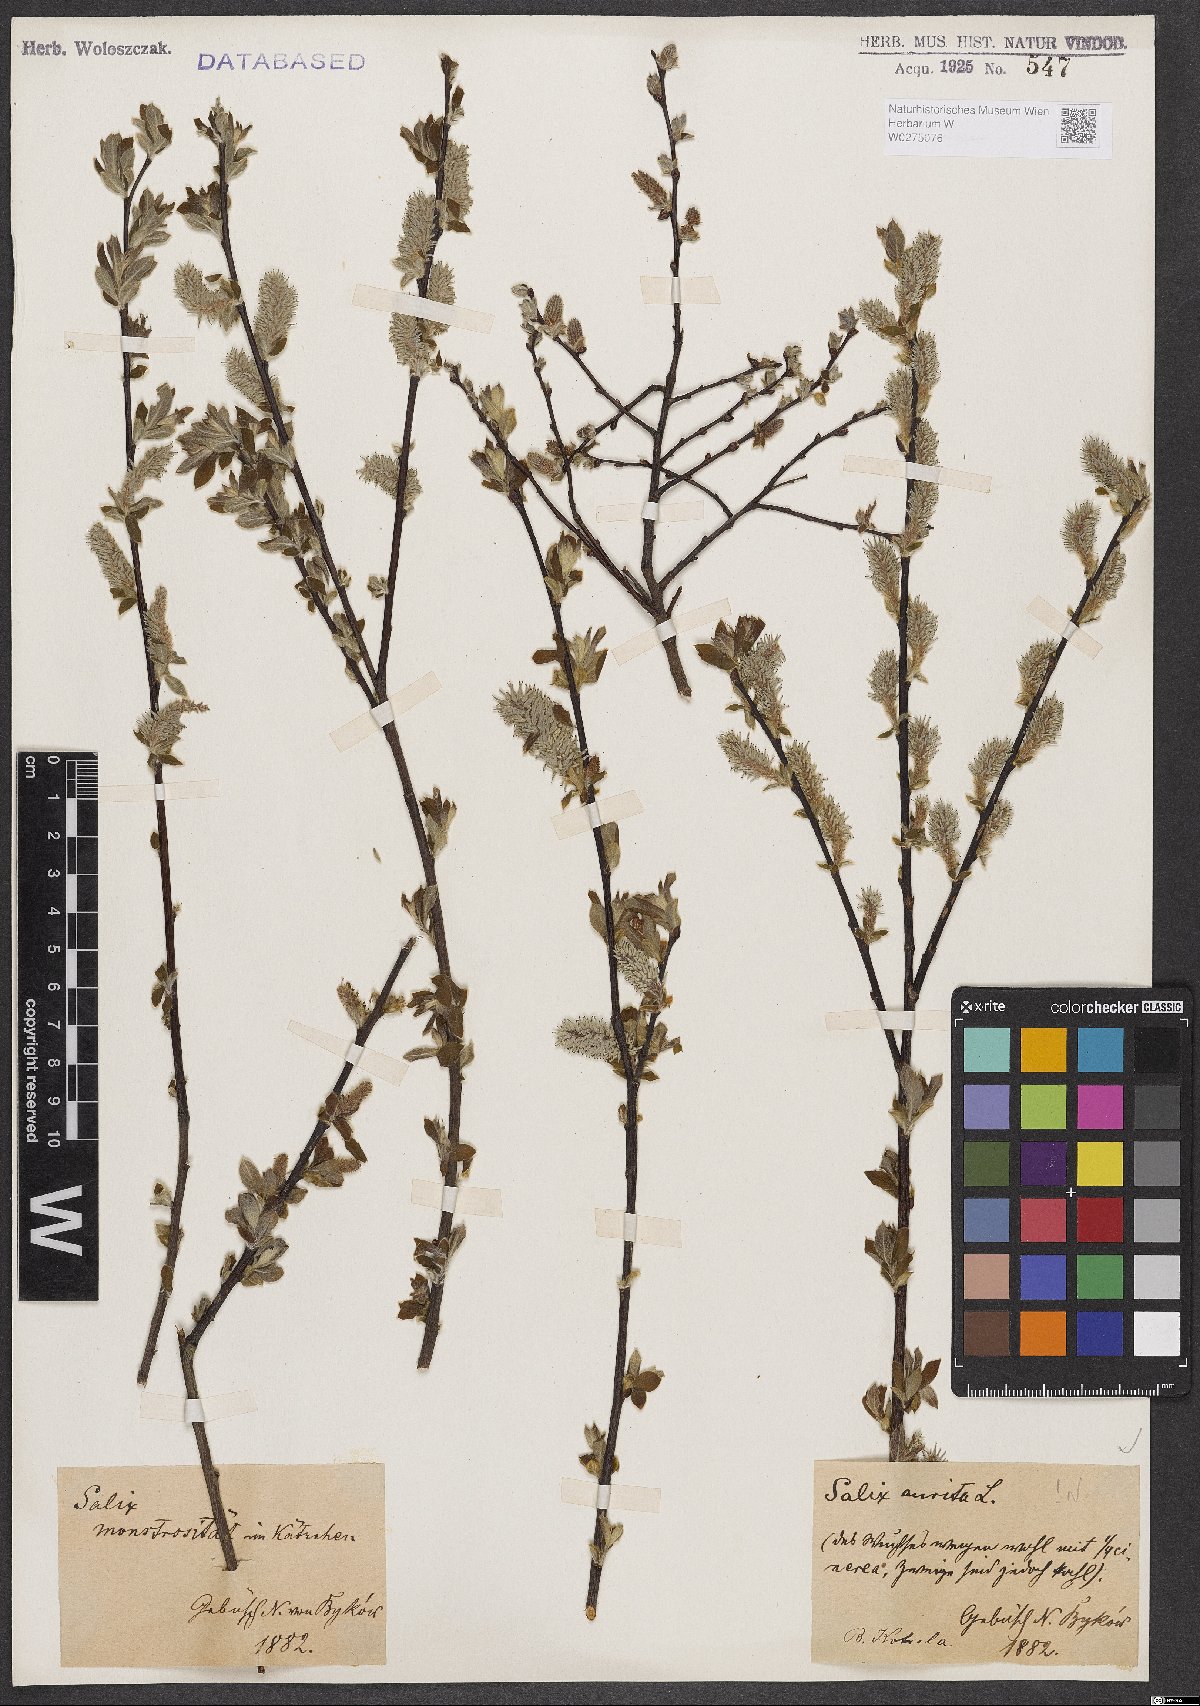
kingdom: Plantae
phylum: Tracheophyta
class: Magnoliopsida
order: Malpighiales
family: Salicaceae
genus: Salix
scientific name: Salix aurita
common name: Eared willow
